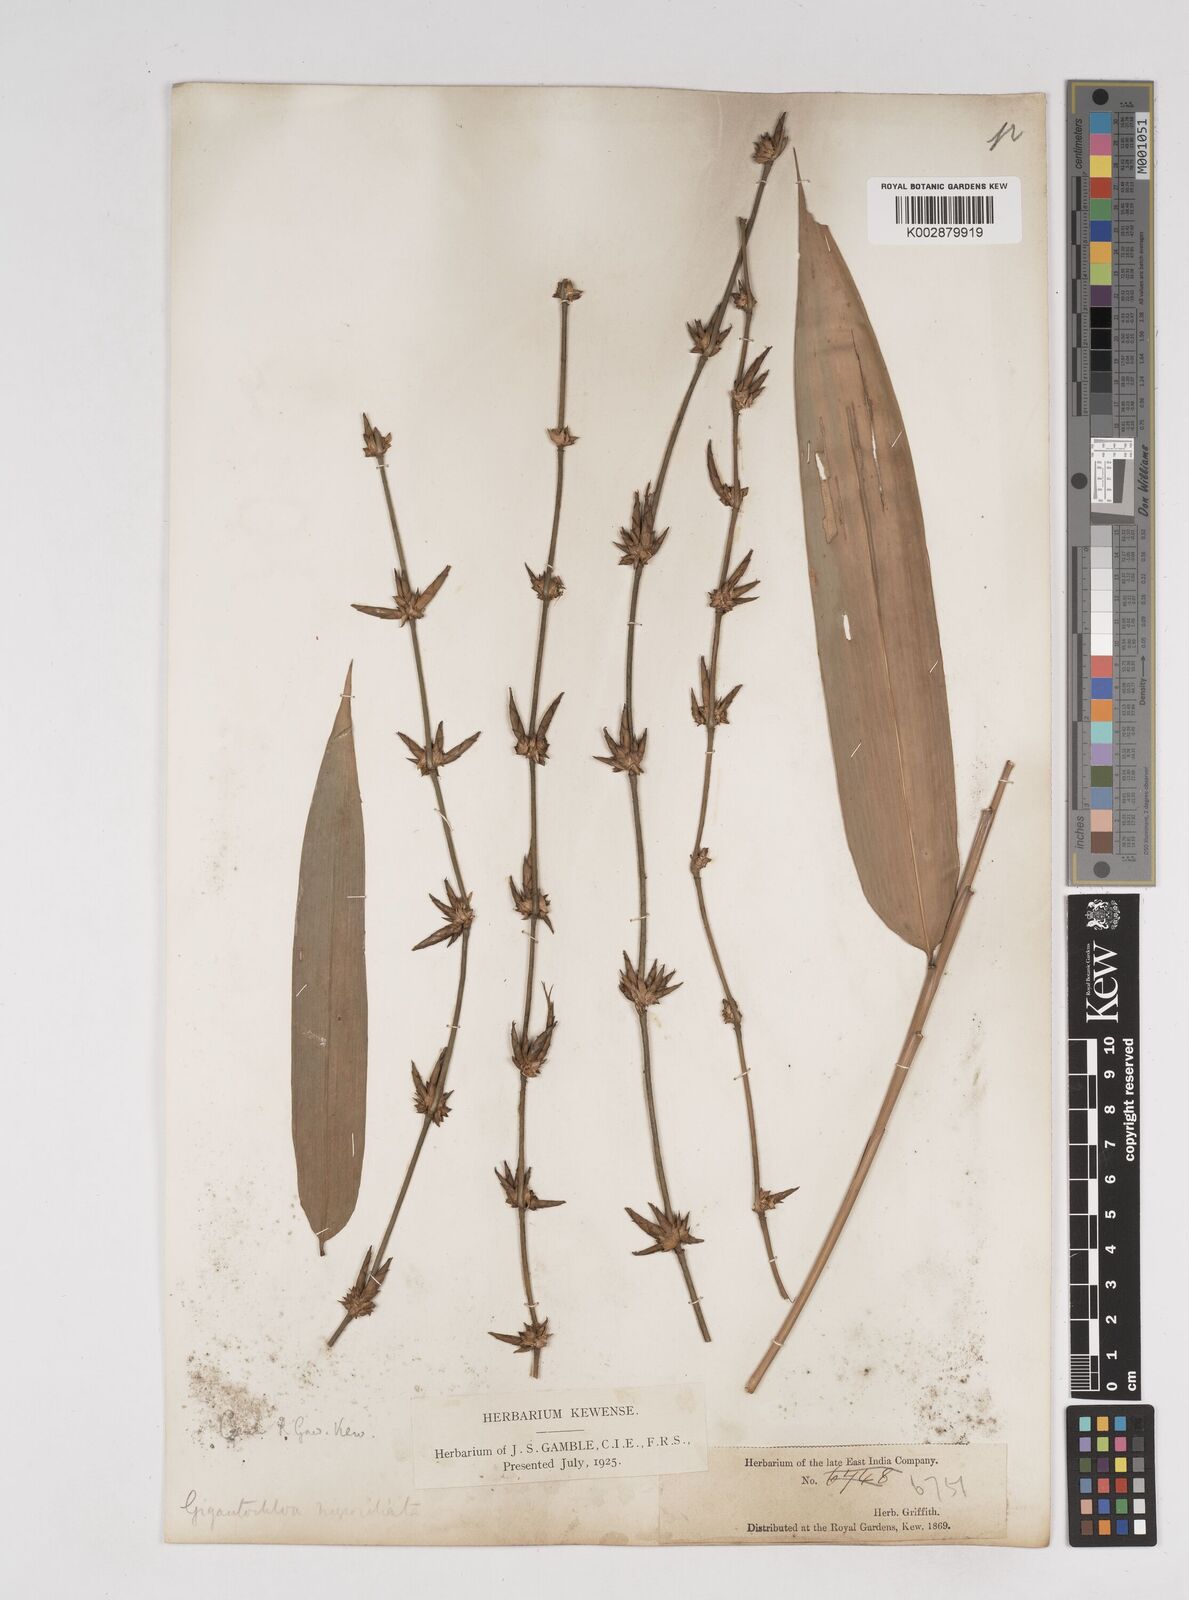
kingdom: Plantae
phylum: Tracheophyta
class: Liliopsida
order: Poales
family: Poaceae
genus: Gigantochloa
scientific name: Gigantochloa nigrociliata
